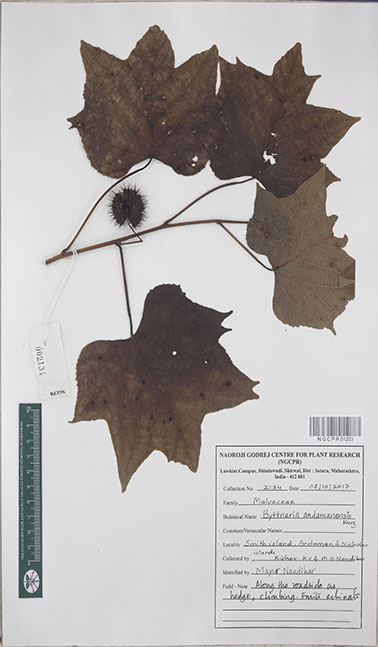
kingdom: Plantae
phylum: Tracheophyta
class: Magnoliopsida
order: Malvales
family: Malvaceae
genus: Ayenia
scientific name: Ayenia andamensis
